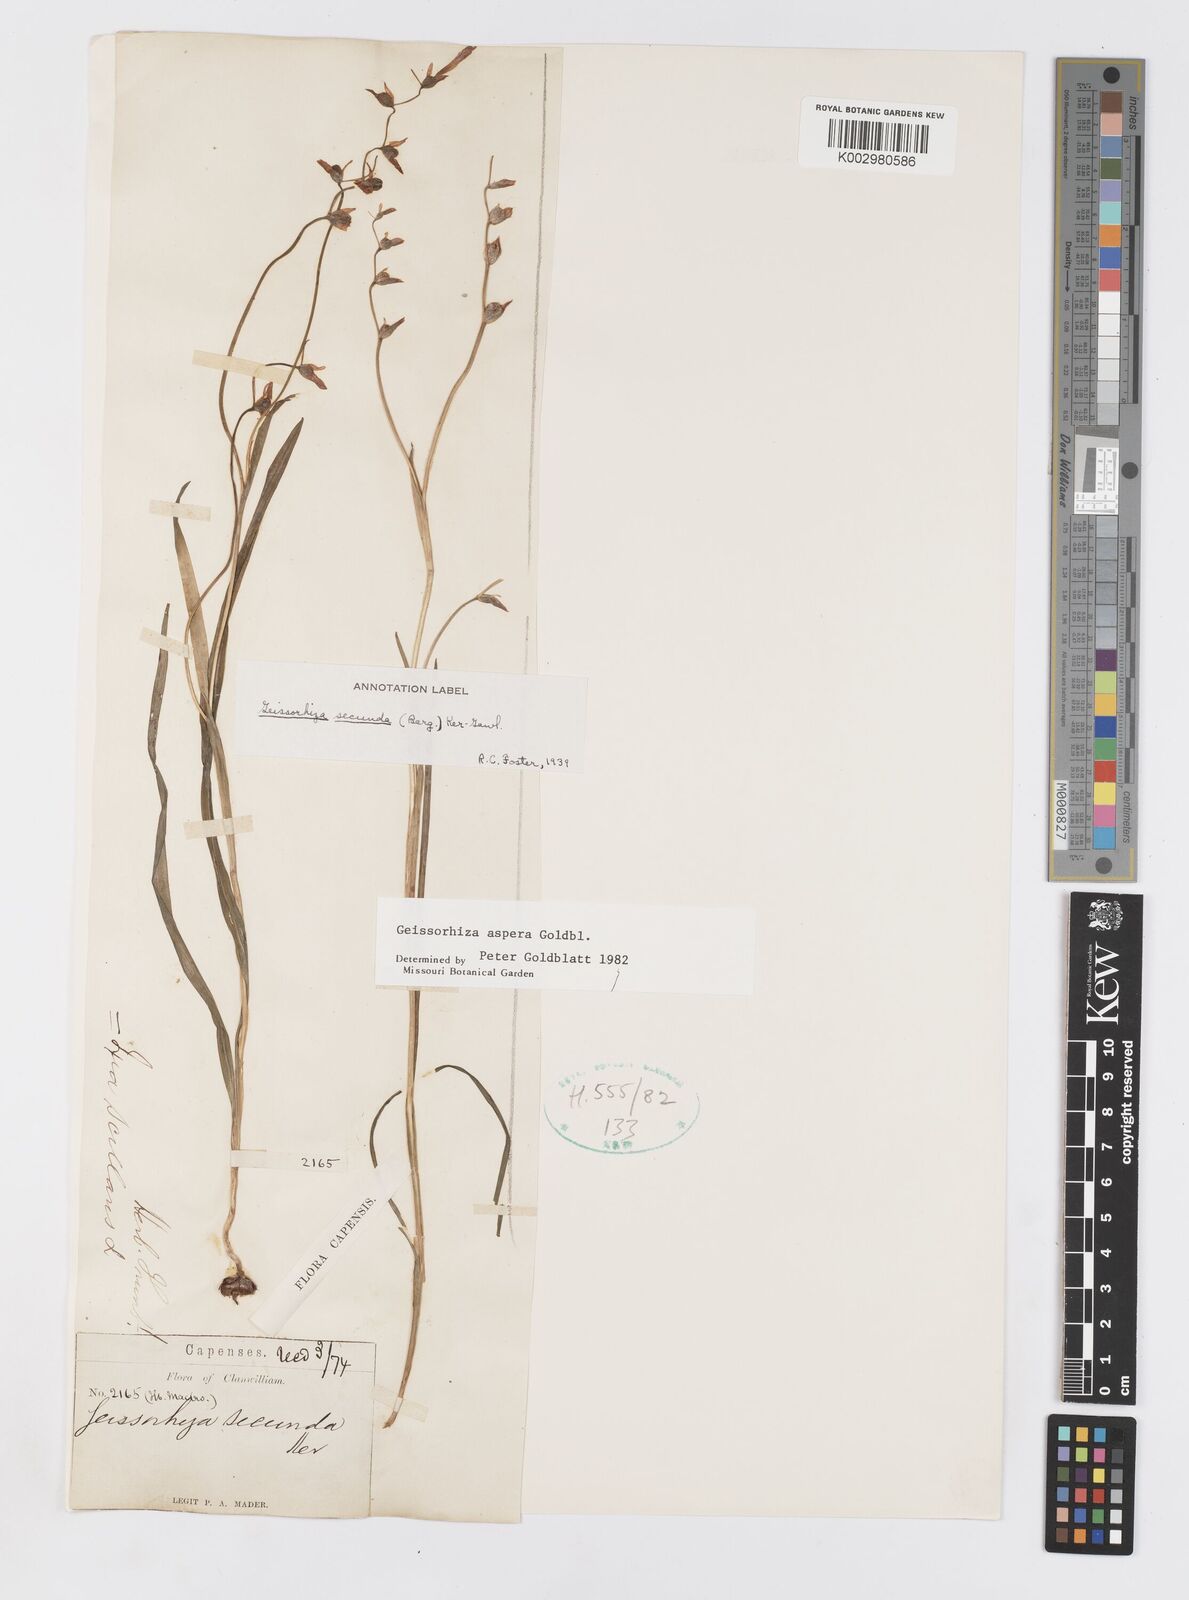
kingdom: Plantae
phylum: Tracheophyta
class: Liliopsida
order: Asparagales
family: Iridaceae
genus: Geissorhiza
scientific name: Geissorhiza aspera
